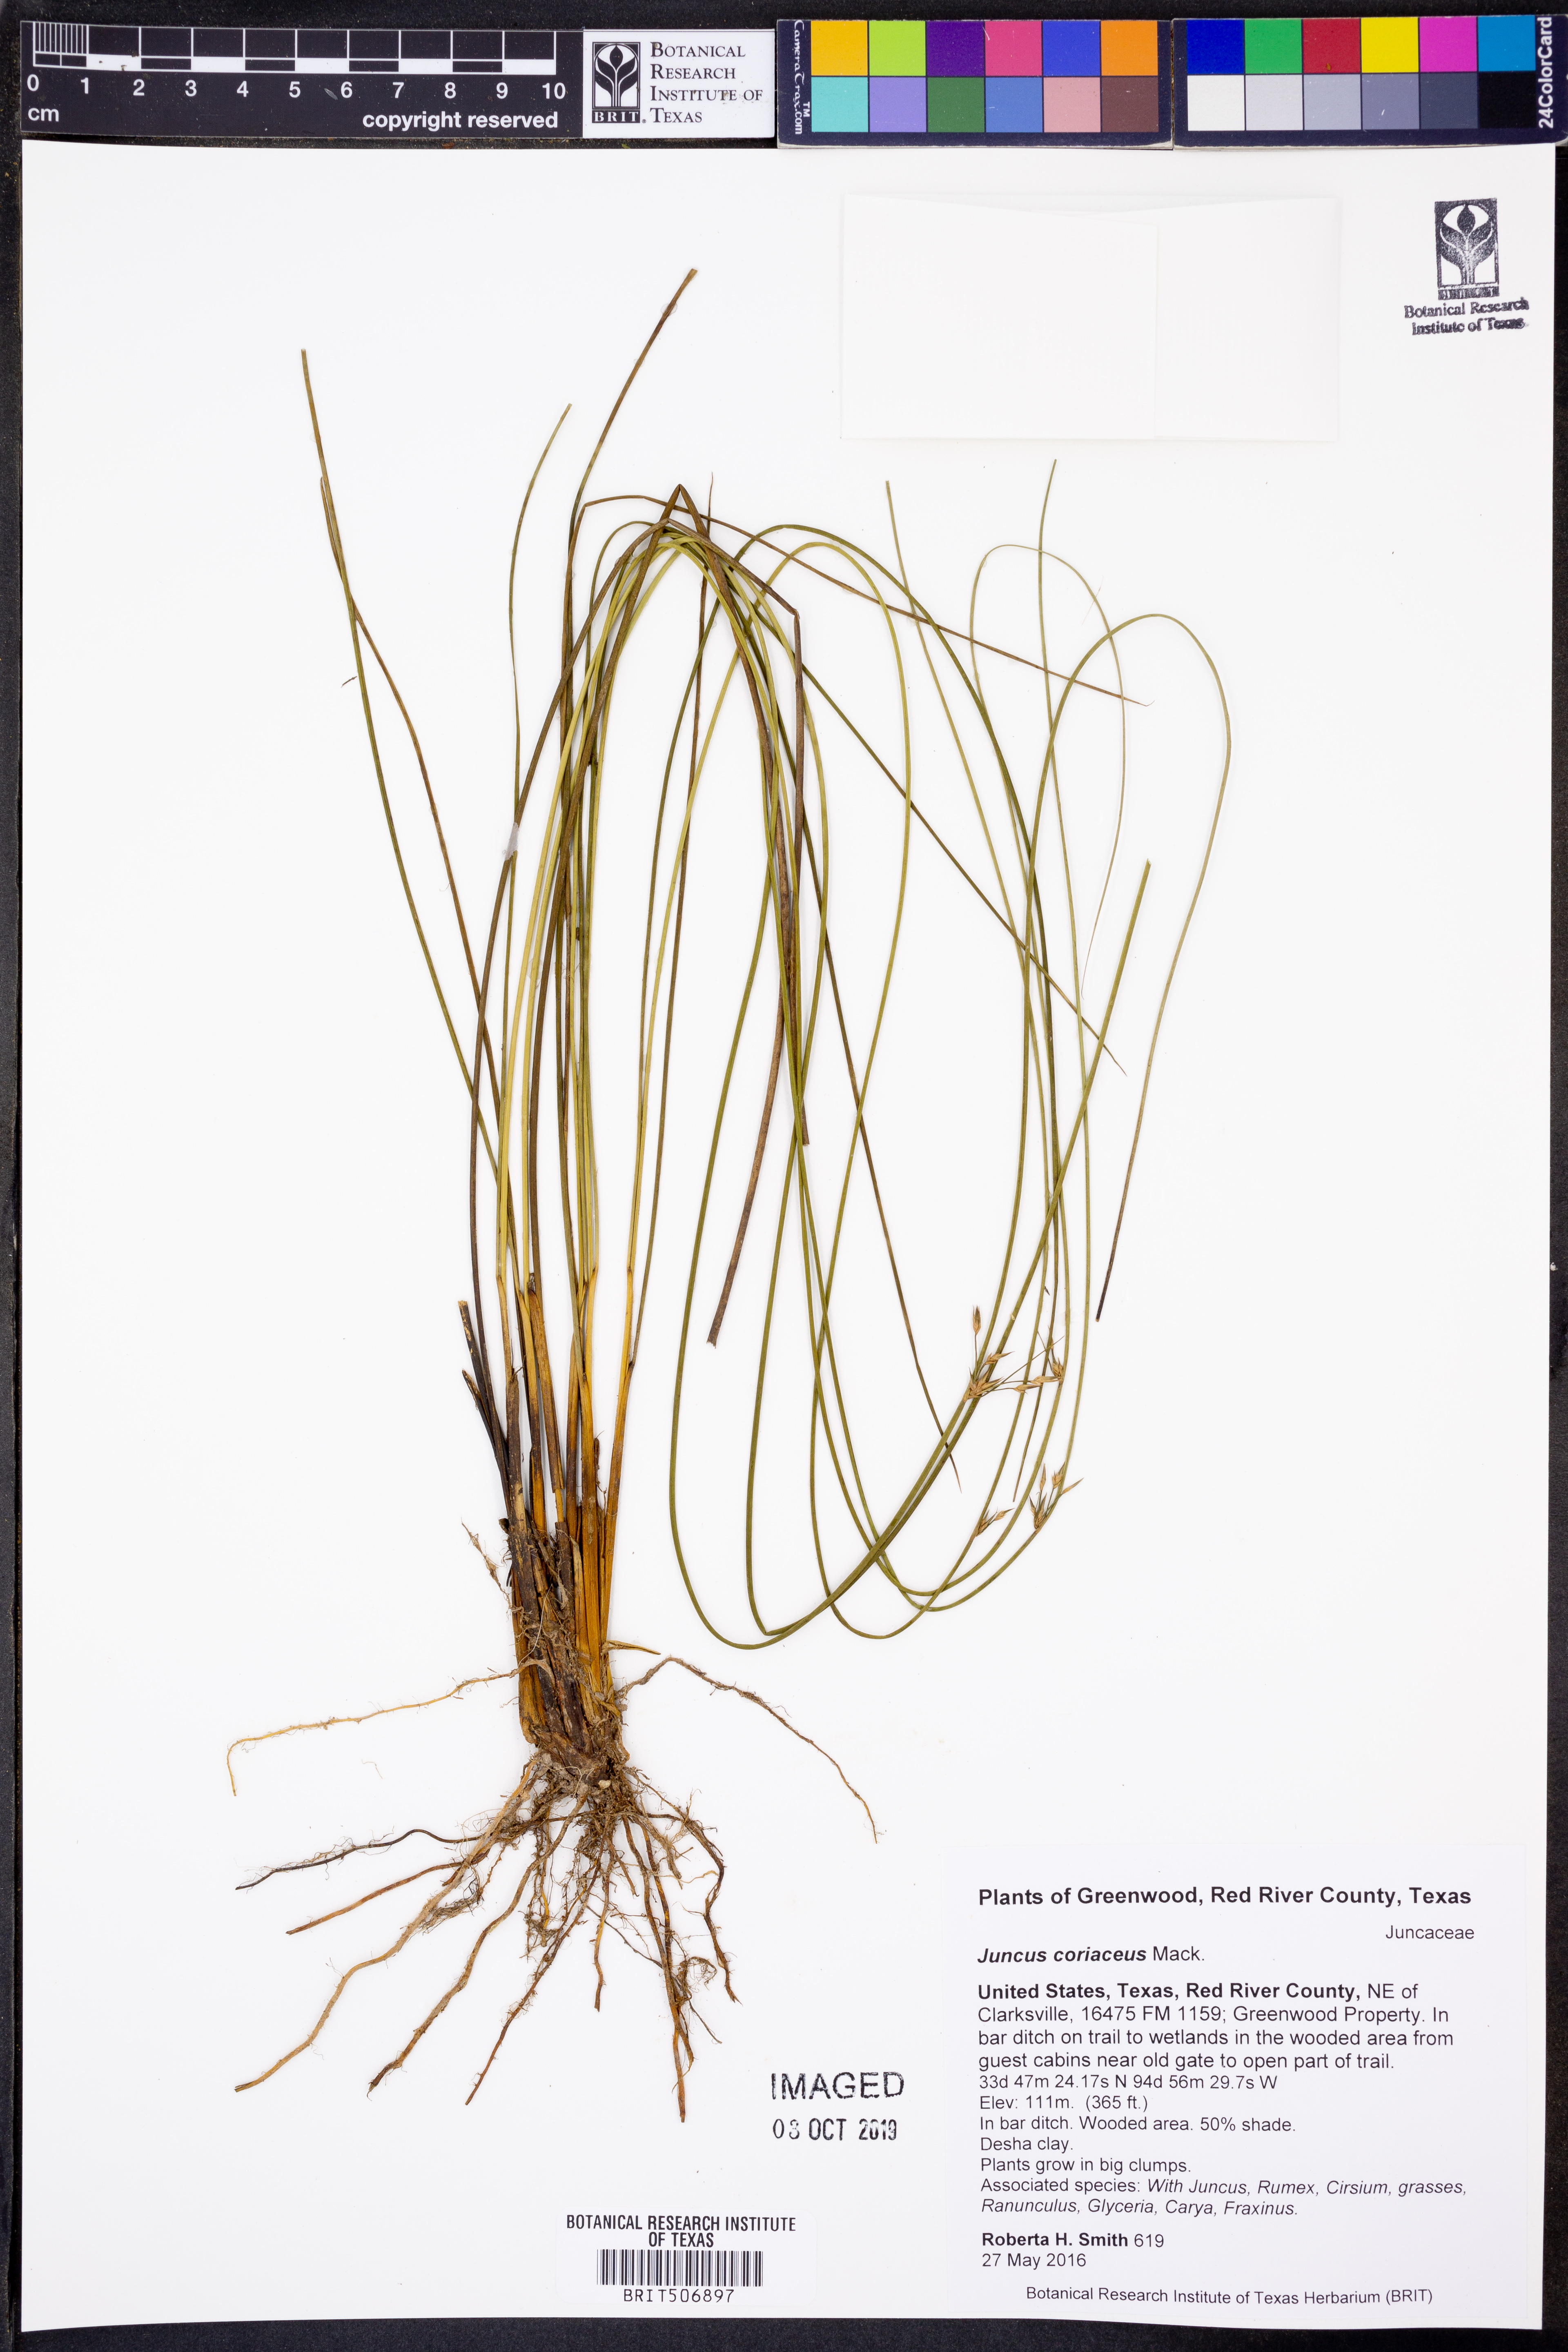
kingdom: Plantae
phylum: Tracheophyta
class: Liliopsida
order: Poales
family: Juncaceae
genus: Juncus
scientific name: Juncus coriaceus
